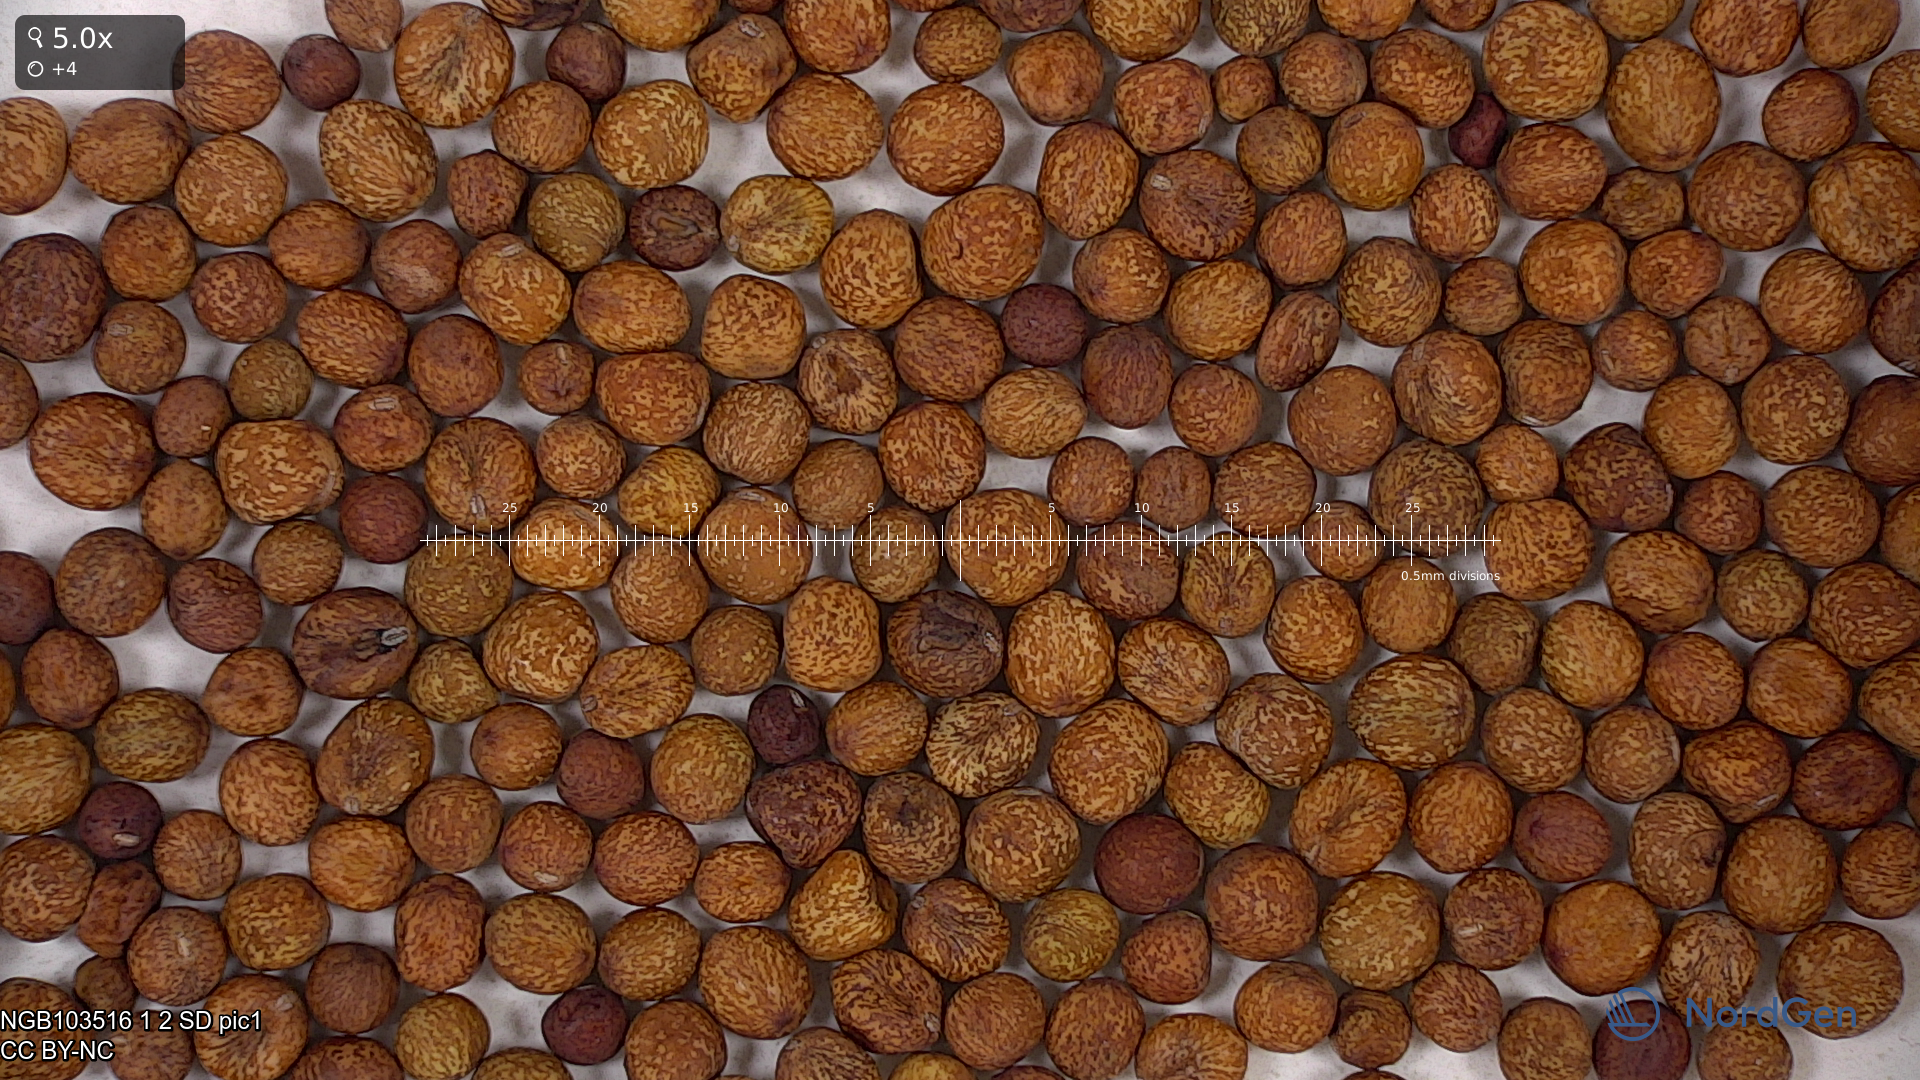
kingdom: Plantae
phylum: Tracheophyta
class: Magnoliopsida
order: Fabales
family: Fabaceae
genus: Lathyrus
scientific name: Lathyrus oleraceus
